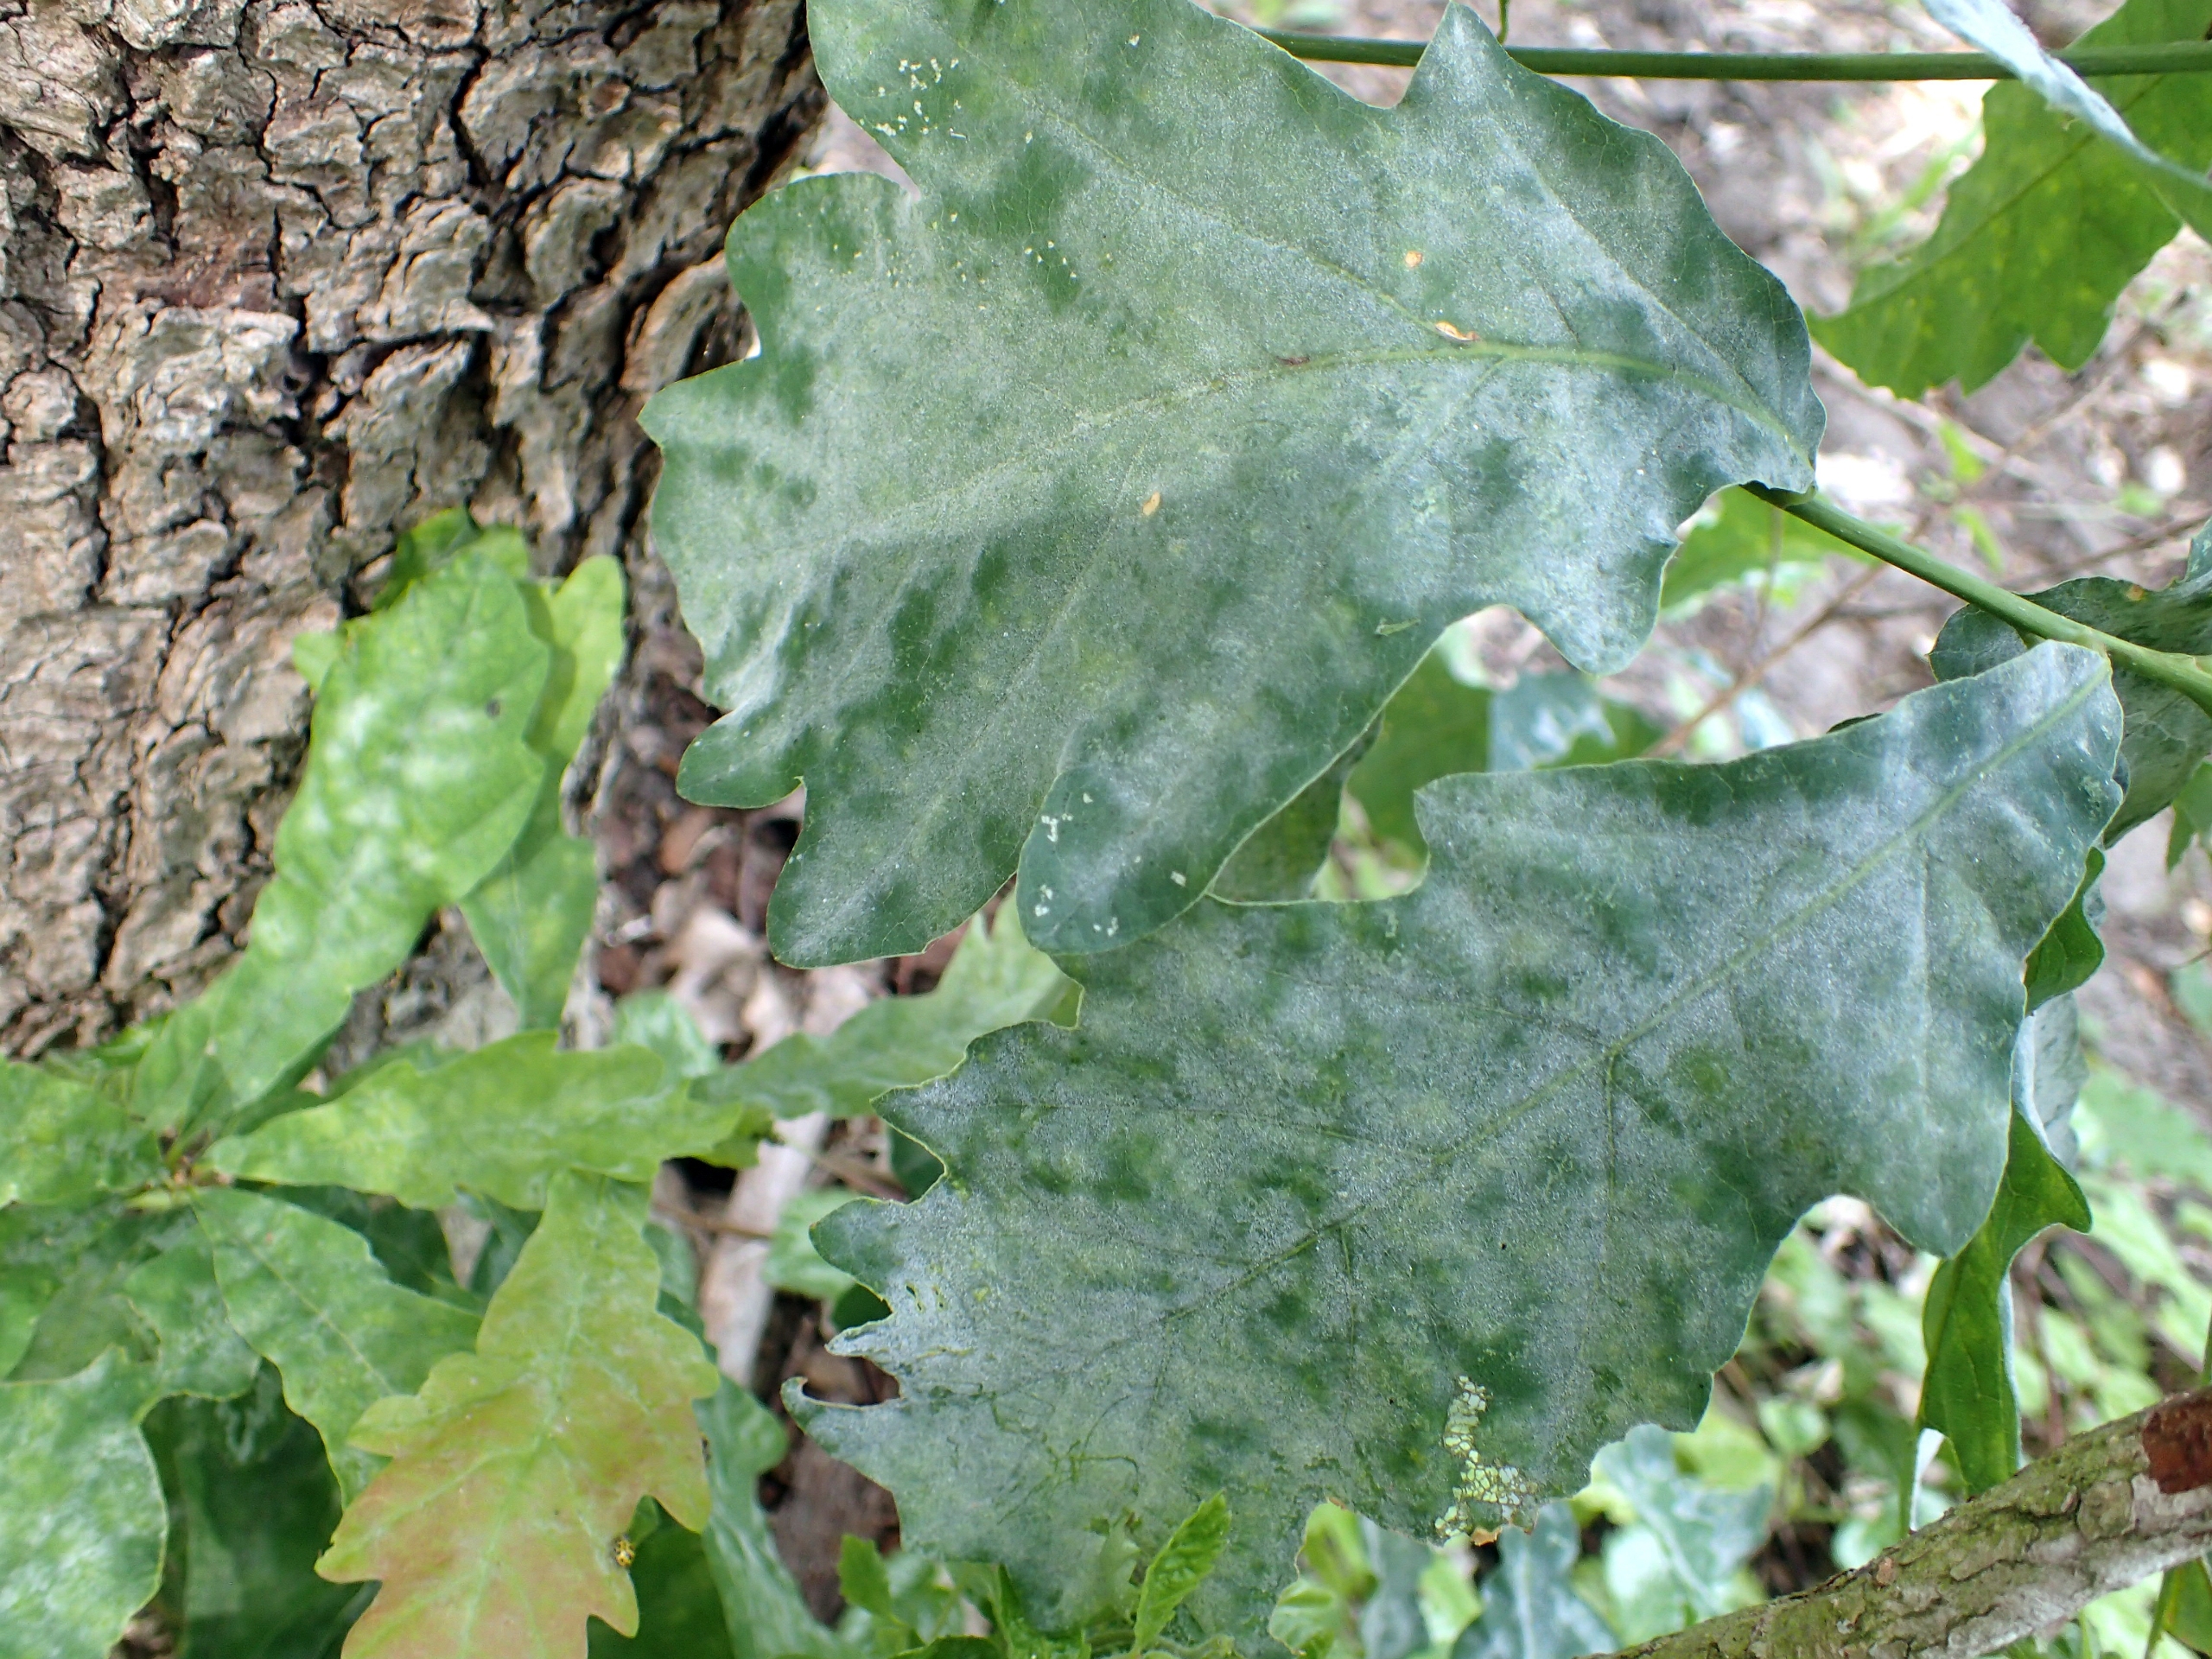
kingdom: Fungi
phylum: Ascomycota
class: Leotiomycetes
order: Helotiales
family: Erysiphaceae
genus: Erysiphe
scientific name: Erysiphe alphitoides
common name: Ege-meldug
